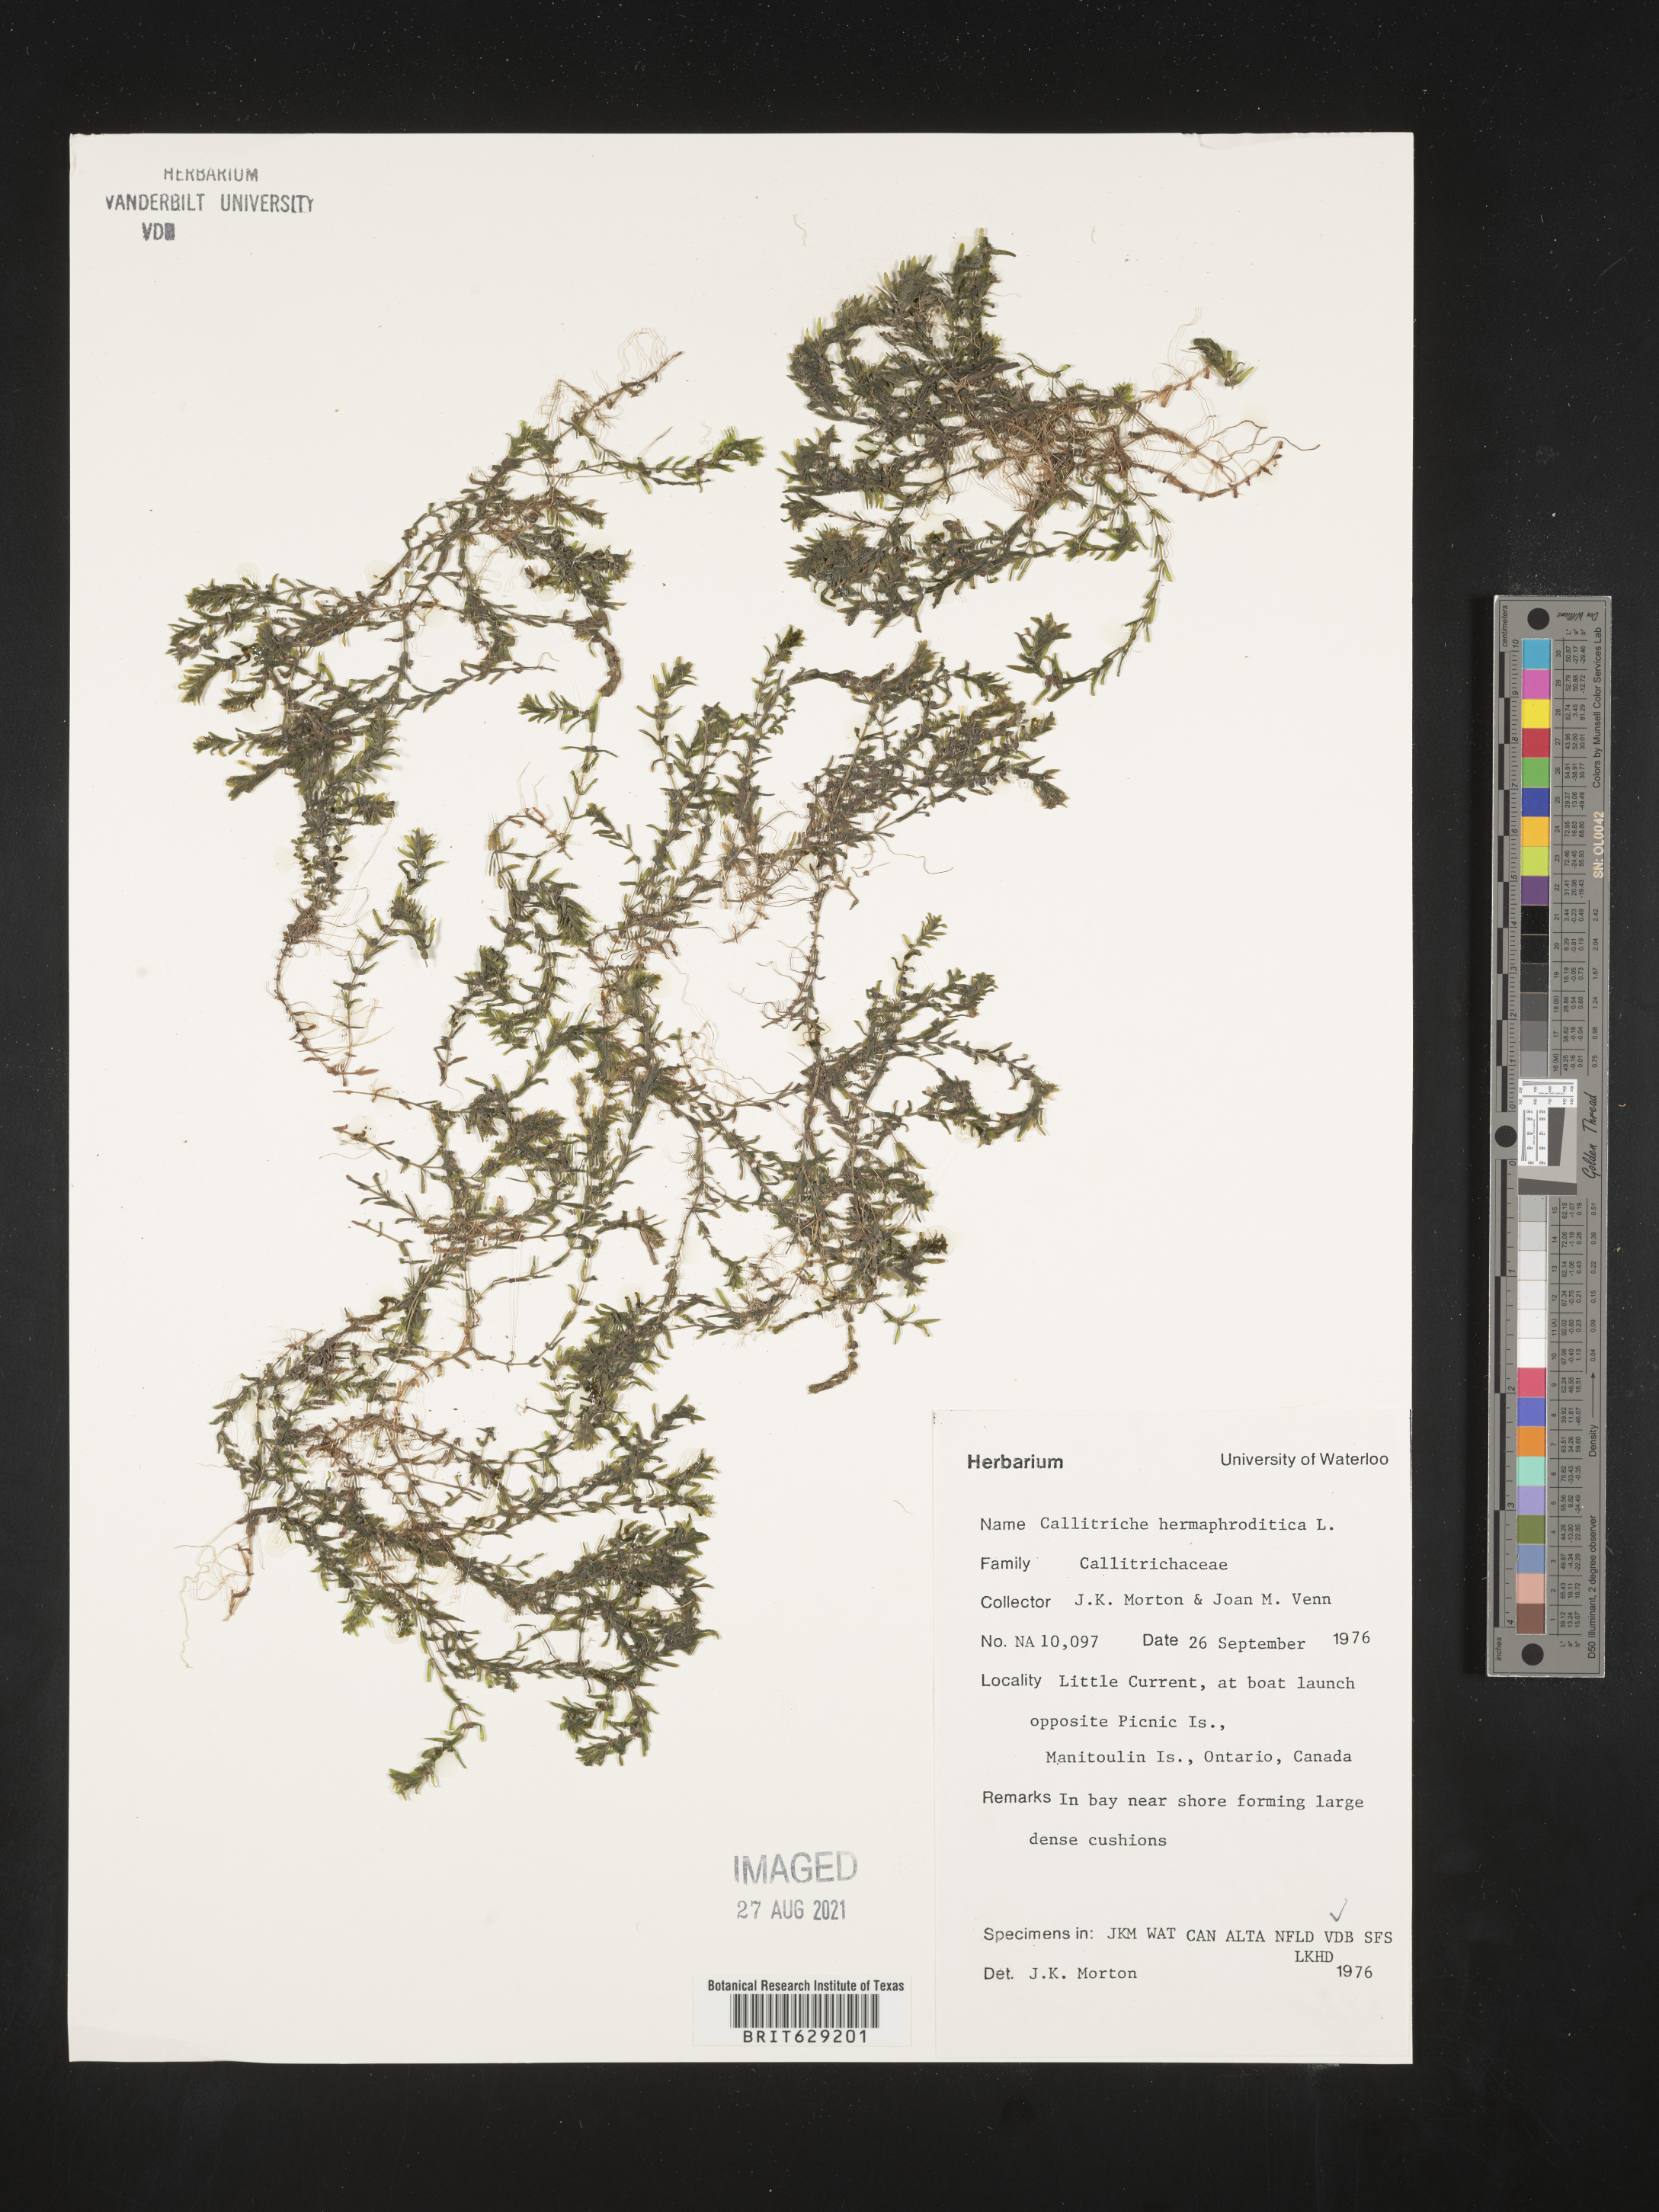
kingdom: Plantae
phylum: Tracheophyta
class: Magnoliopsida
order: Lamiales
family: Plantaginaceae
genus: Callitriche
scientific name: Callitriche
